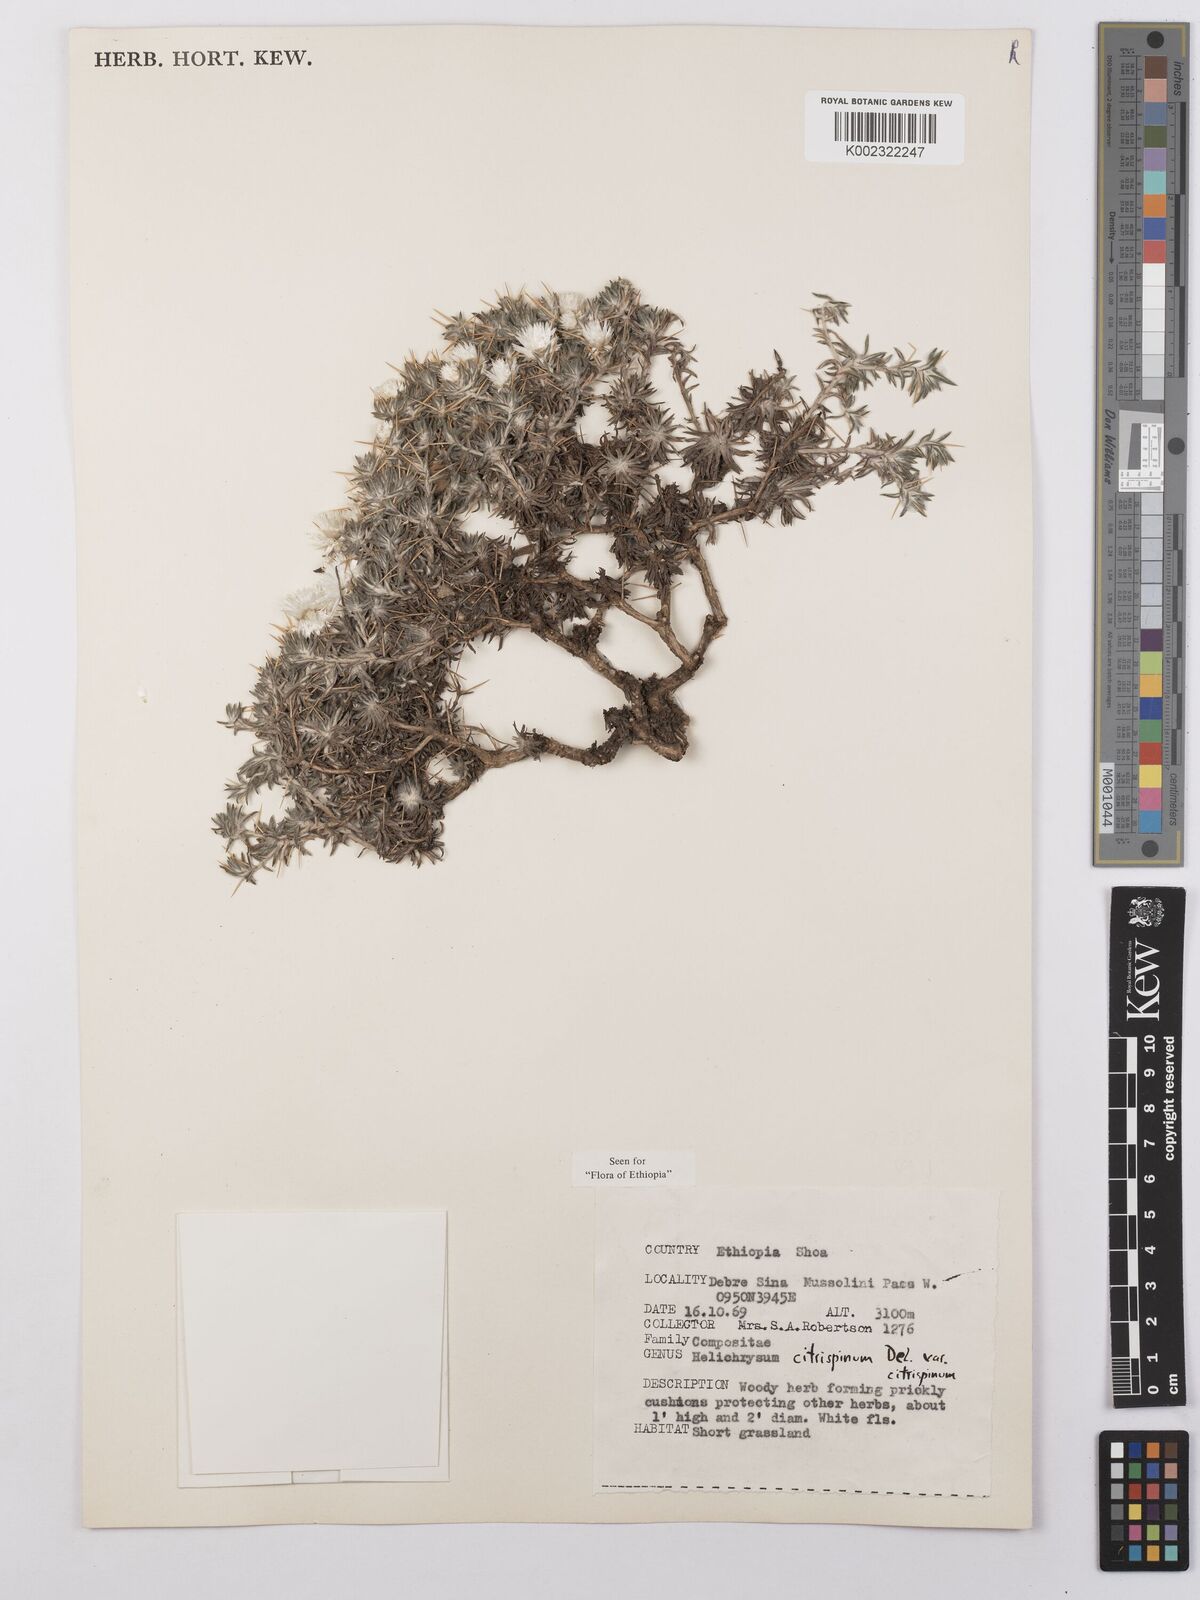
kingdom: Plantae
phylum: Tracheophyta
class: Magnoliopsida
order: Asterales
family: Asteraceae
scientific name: Asteraceae
